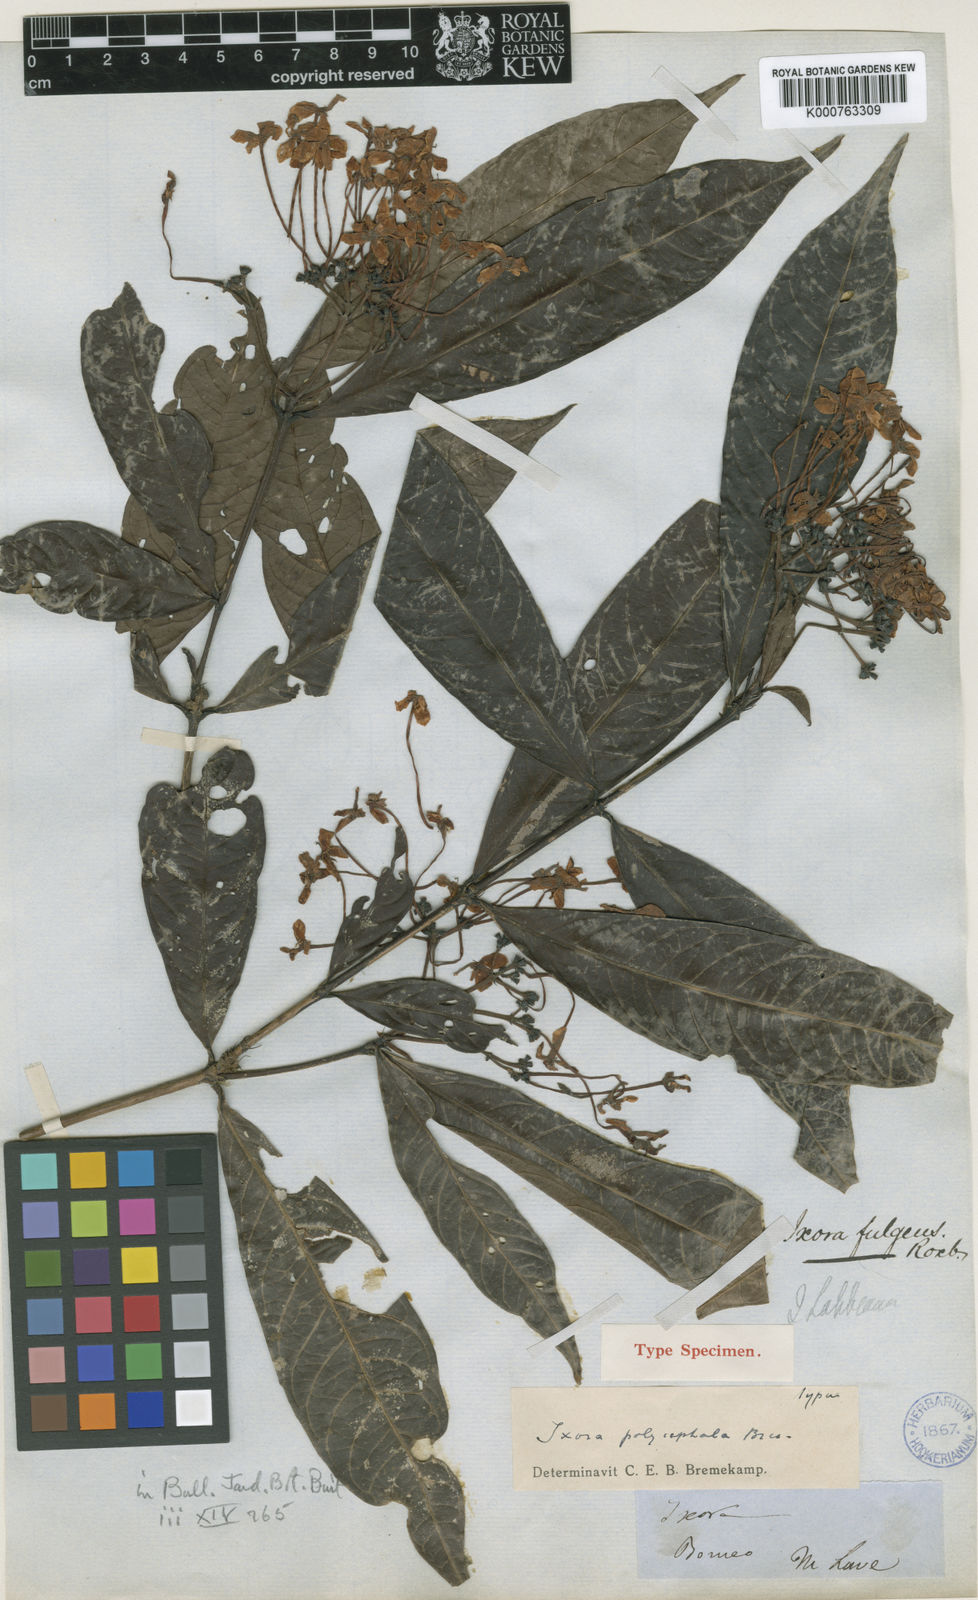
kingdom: Plantae
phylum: Tracheophyta
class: Magnoliopsida
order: Gentianales
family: Rubiaceae
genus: Ixora
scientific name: Ixora polycephala
